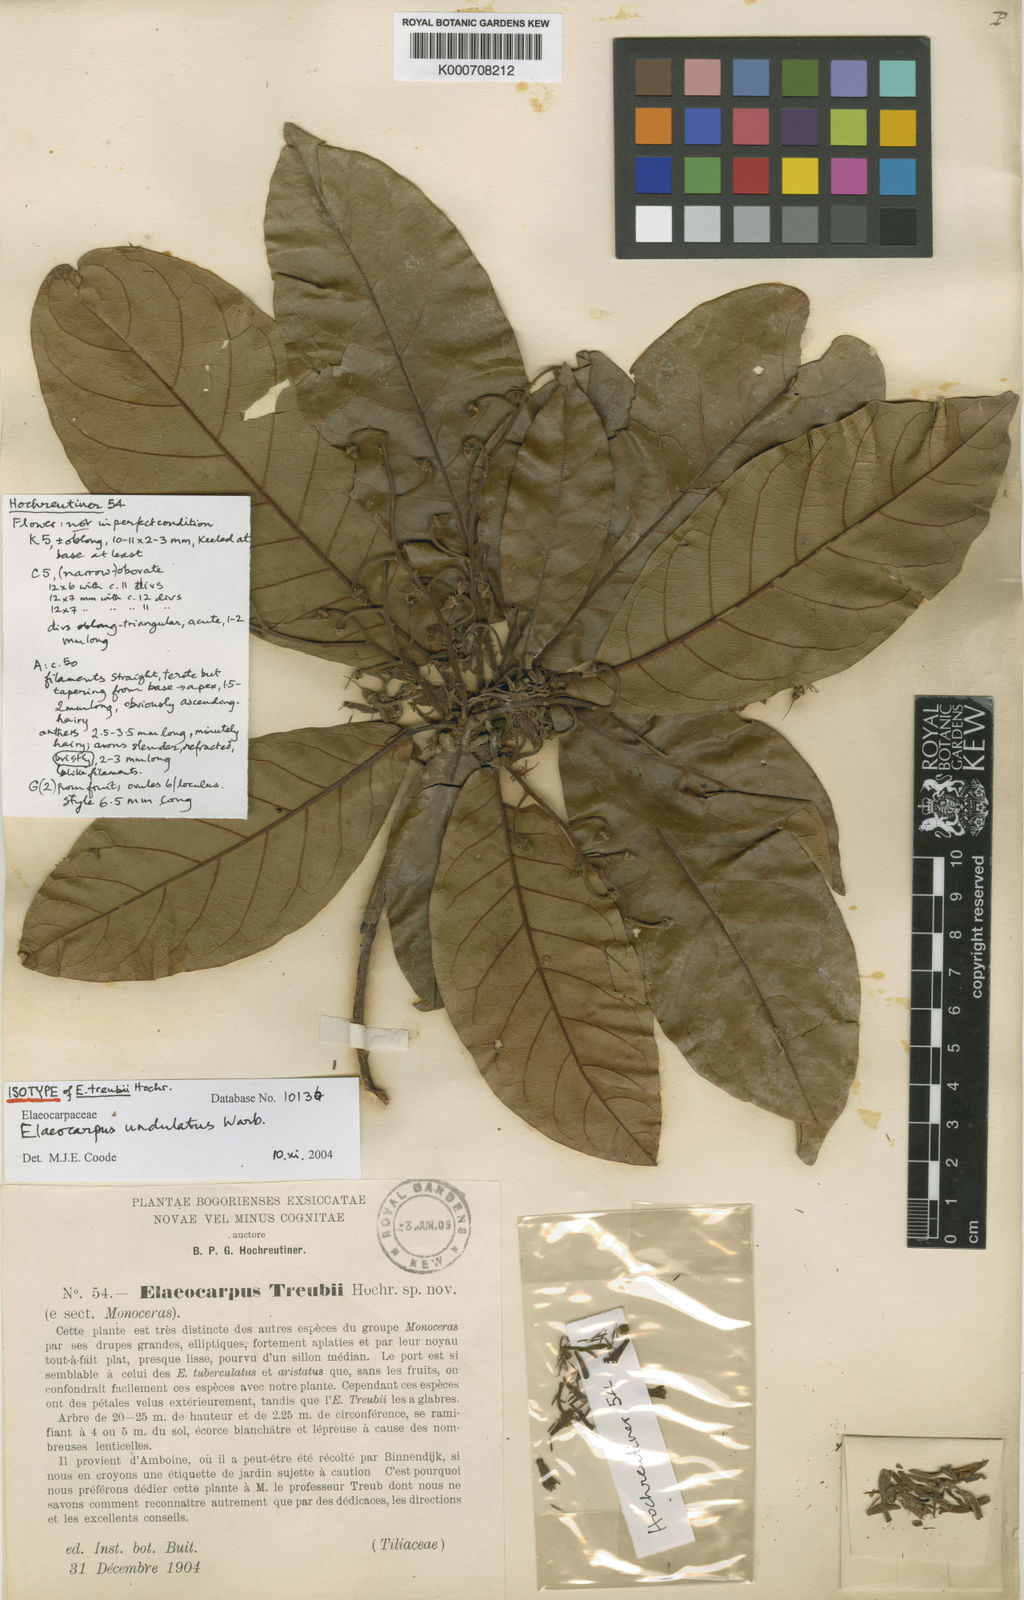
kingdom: Plantae
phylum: Tracheophyta
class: Magnoliopsida
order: Oxalidales
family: Elaeocarpaceae
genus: Elaeocarpus
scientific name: Elaeocarpus undulatus
